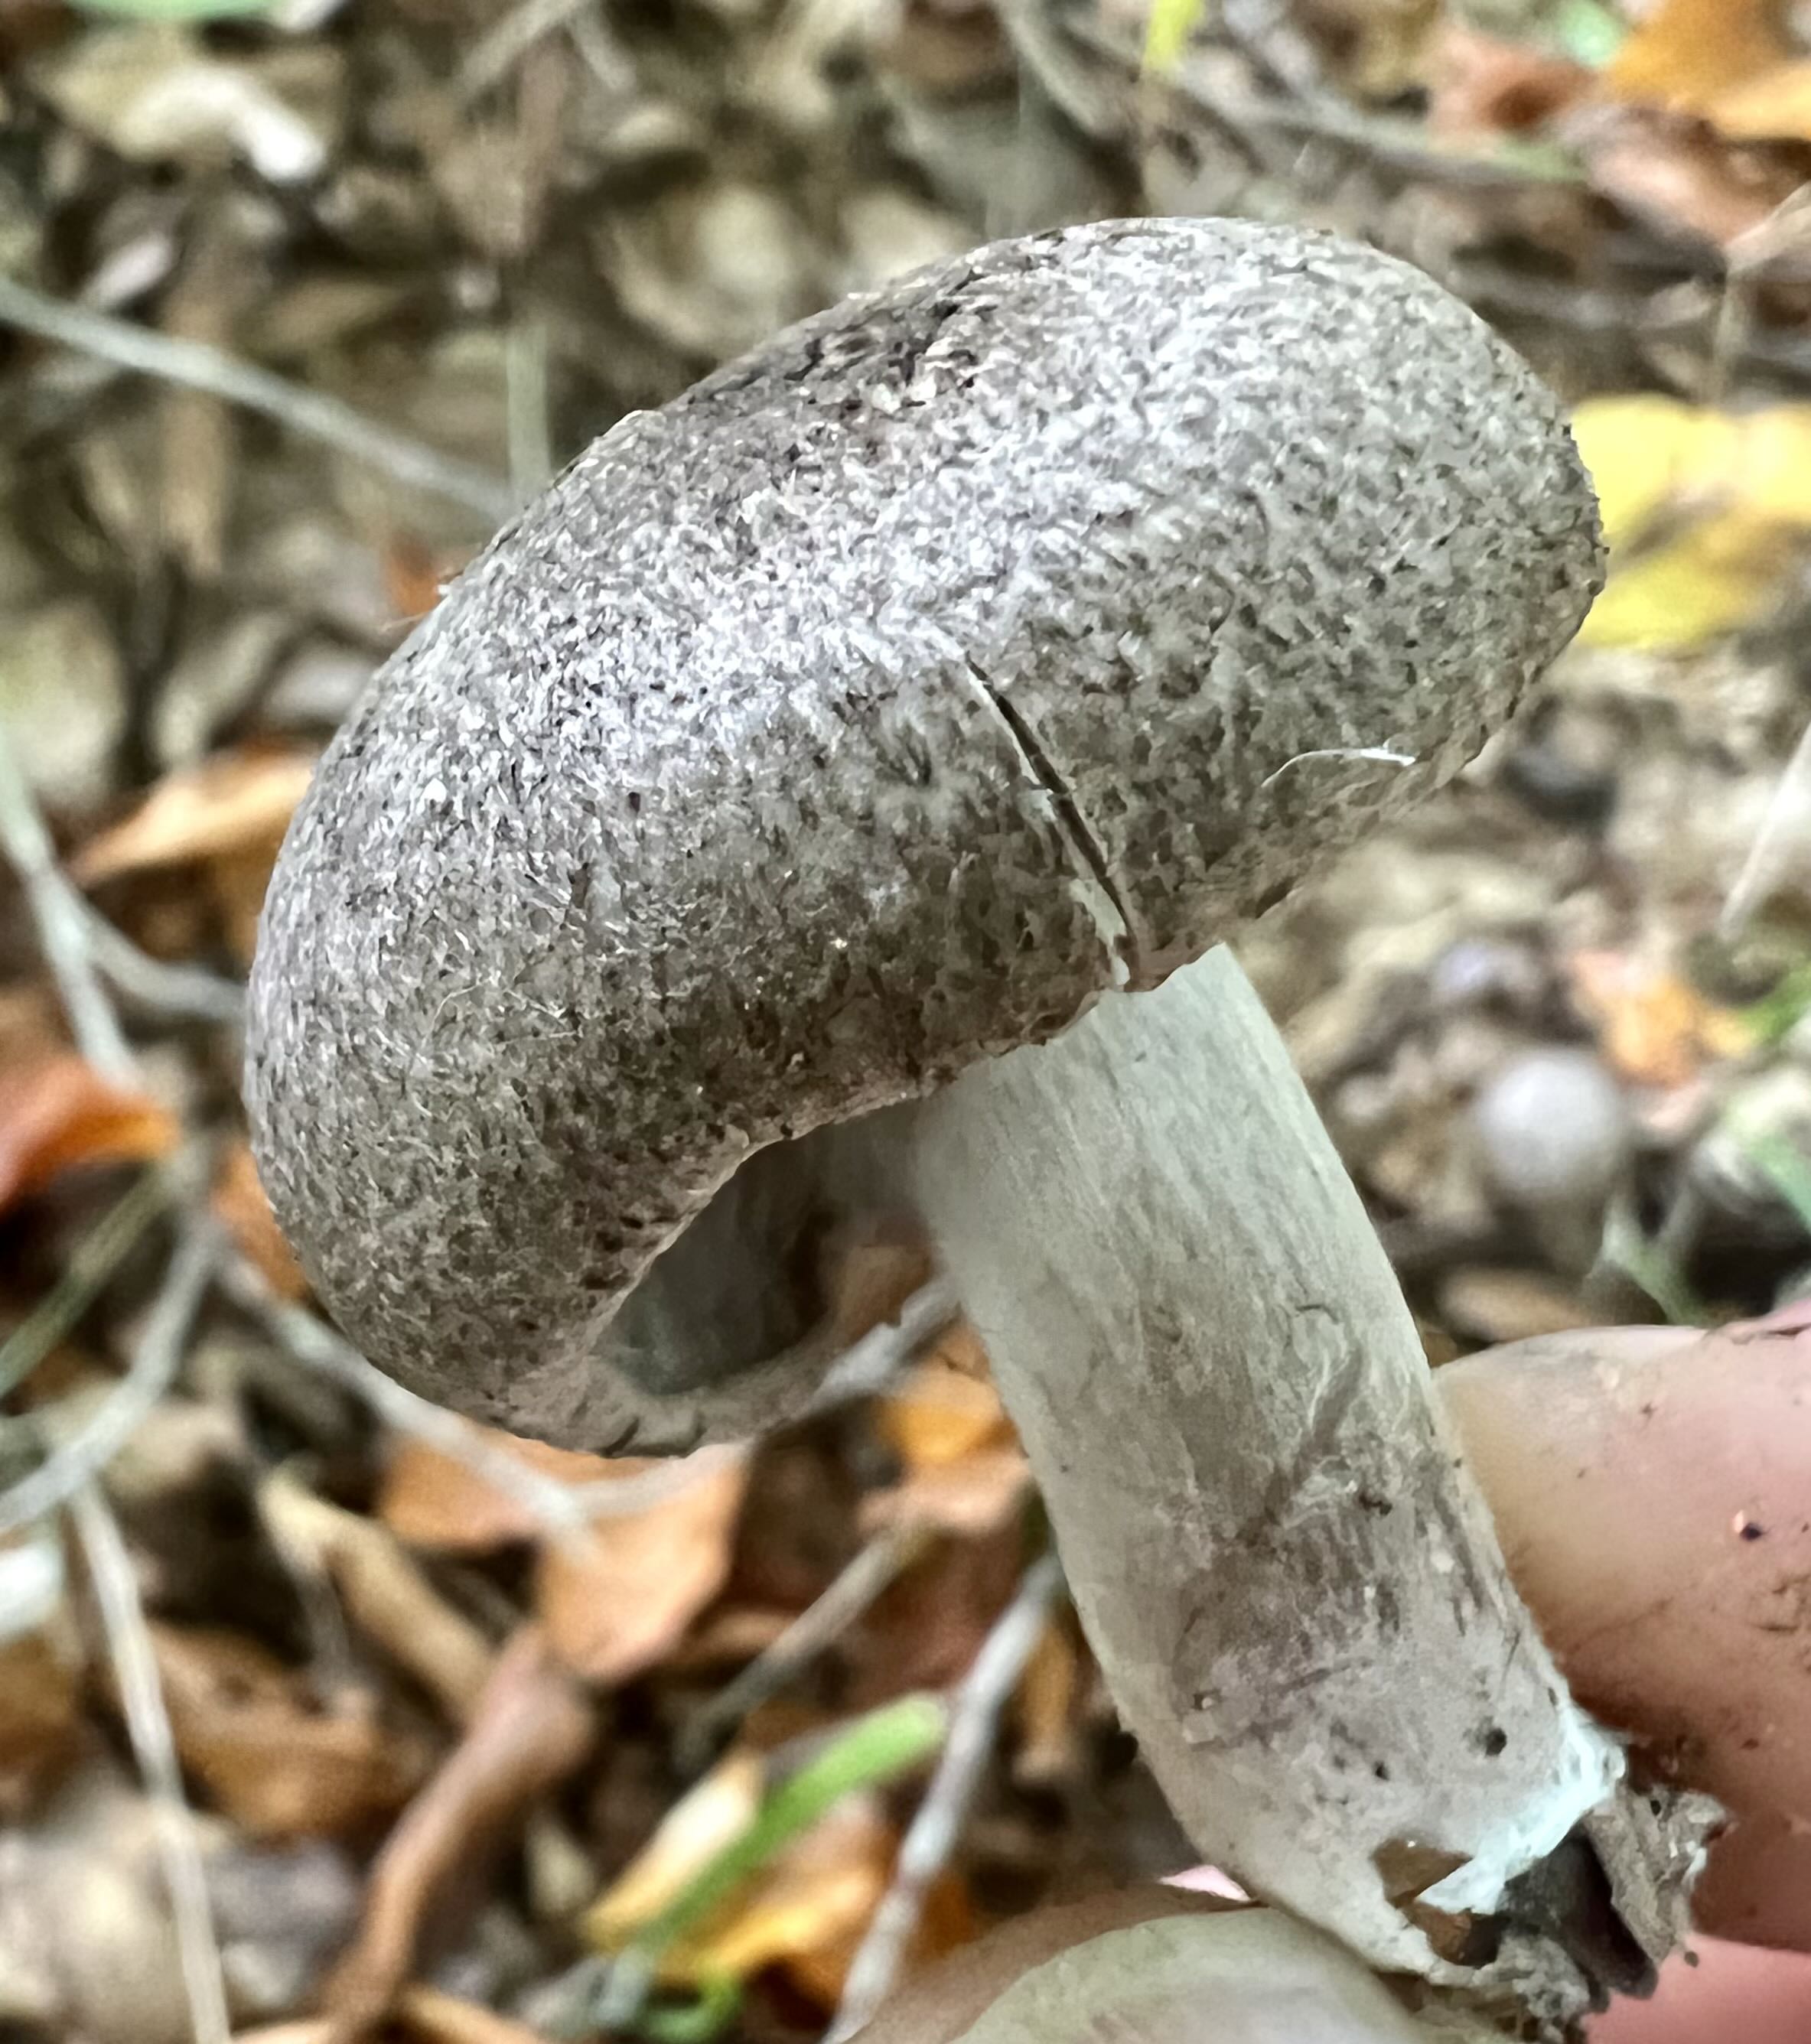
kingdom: Fungi
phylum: Basidiomycota
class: Agaricomycetes
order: Agaricales
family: Tricholomataceae
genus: Tricholoma
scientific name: Tricholoma atrosquamosum
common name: sortskællet ridderhat
